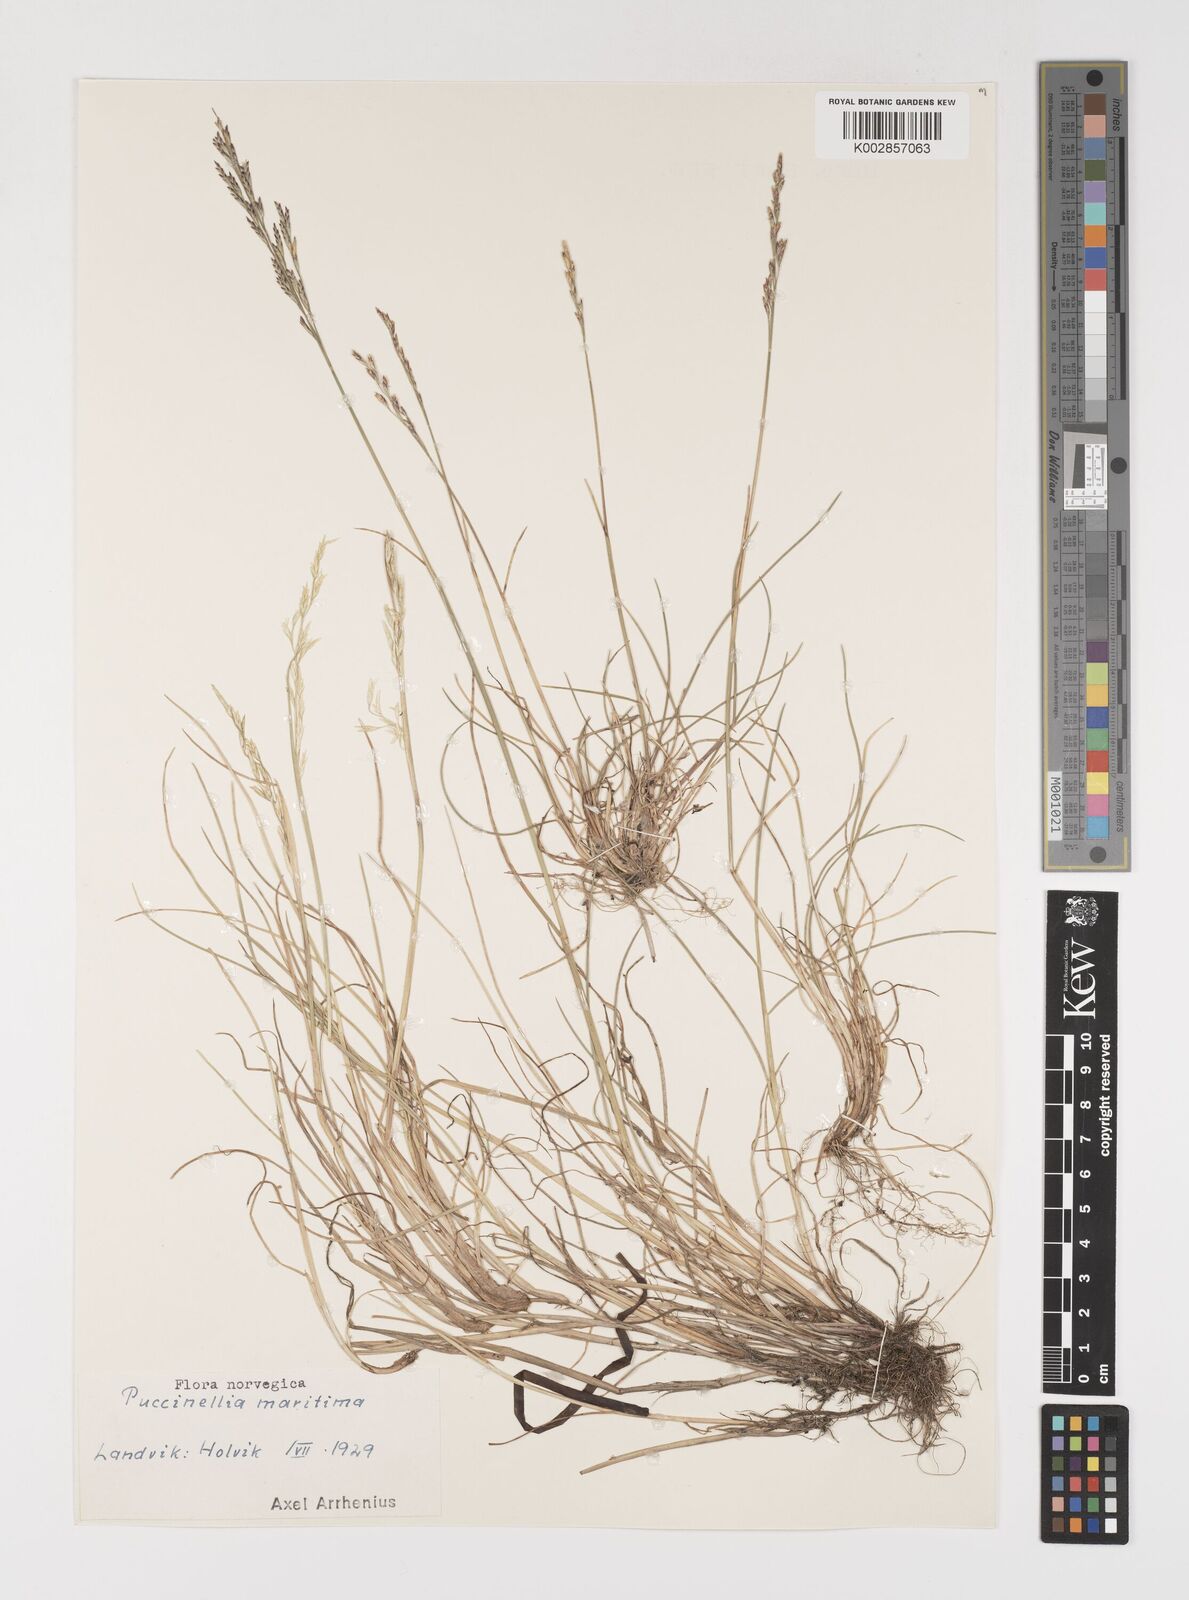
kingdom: Plantae
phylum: Tracheophyta
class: Liliopsida
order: Poales
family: Poaceae
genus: Puccinellia
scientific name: Puccinellia maritima
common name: Common saltmarsh grass
